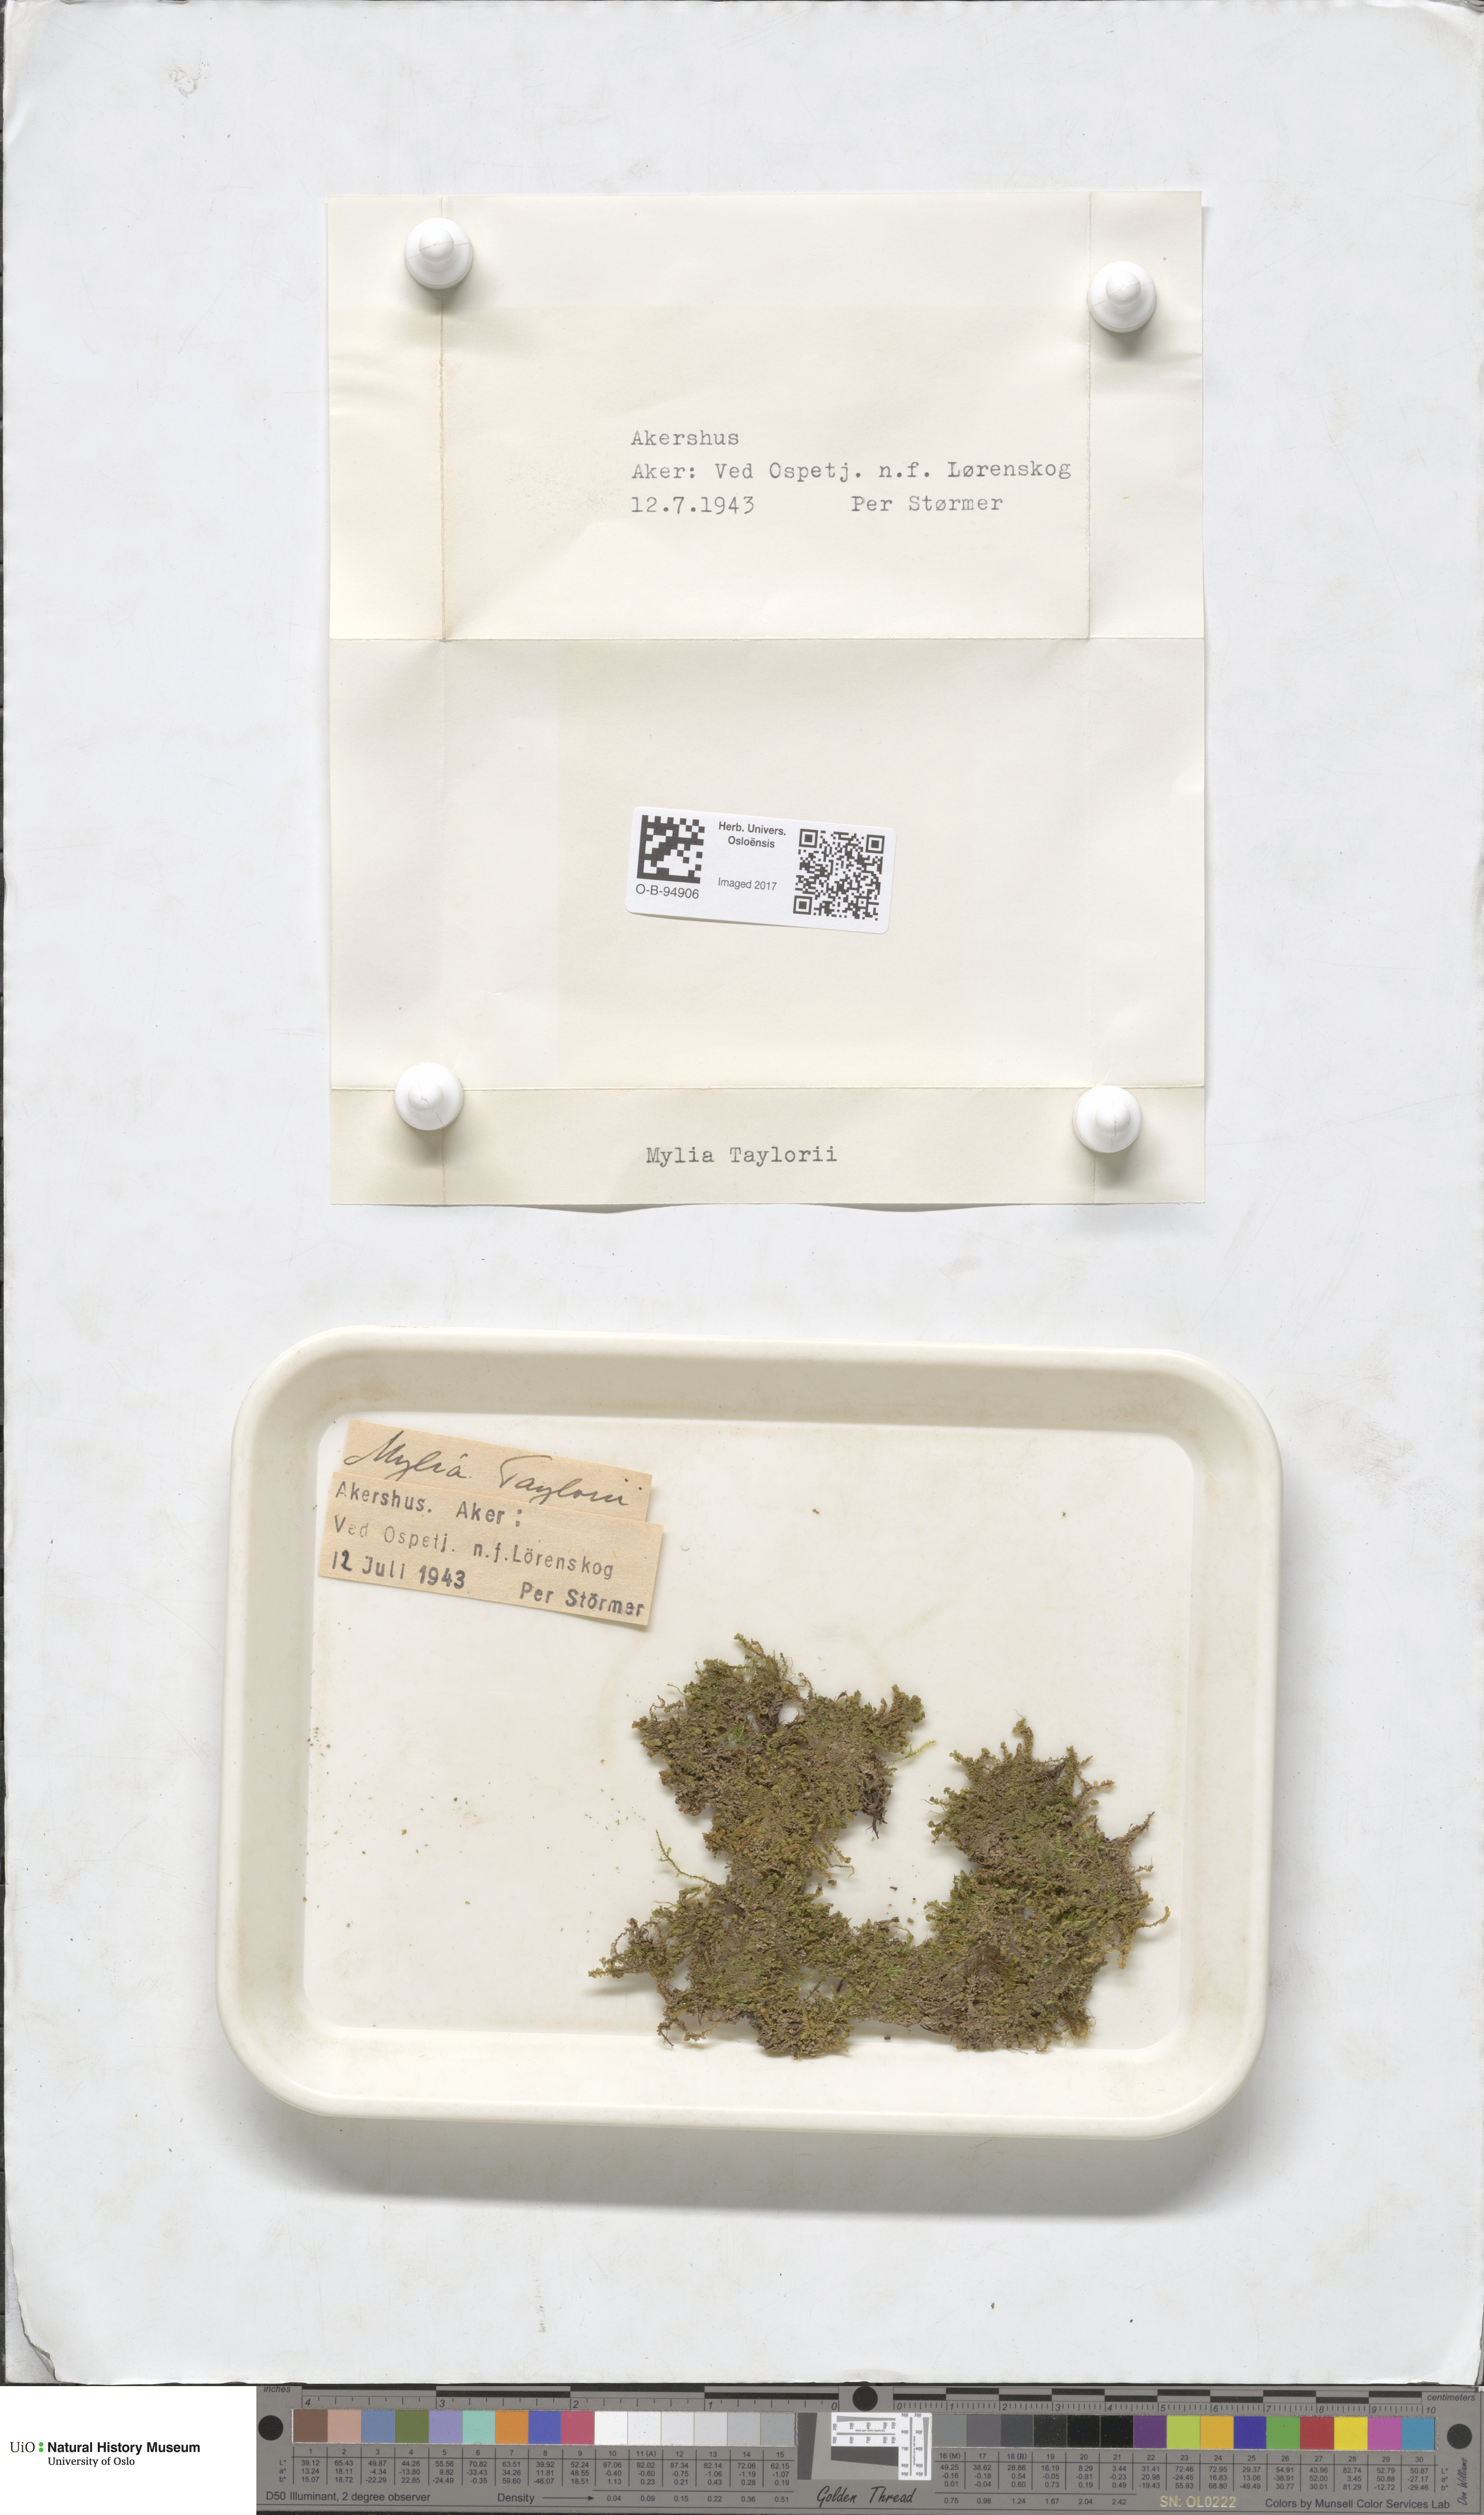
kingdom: Plantae
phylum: Marchantiophyta
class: Jungermanniopsida
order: Jungermanniales
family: Myliaceae
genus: Mylia
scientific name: Mylia taylorii
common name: Taylor s flapwort
